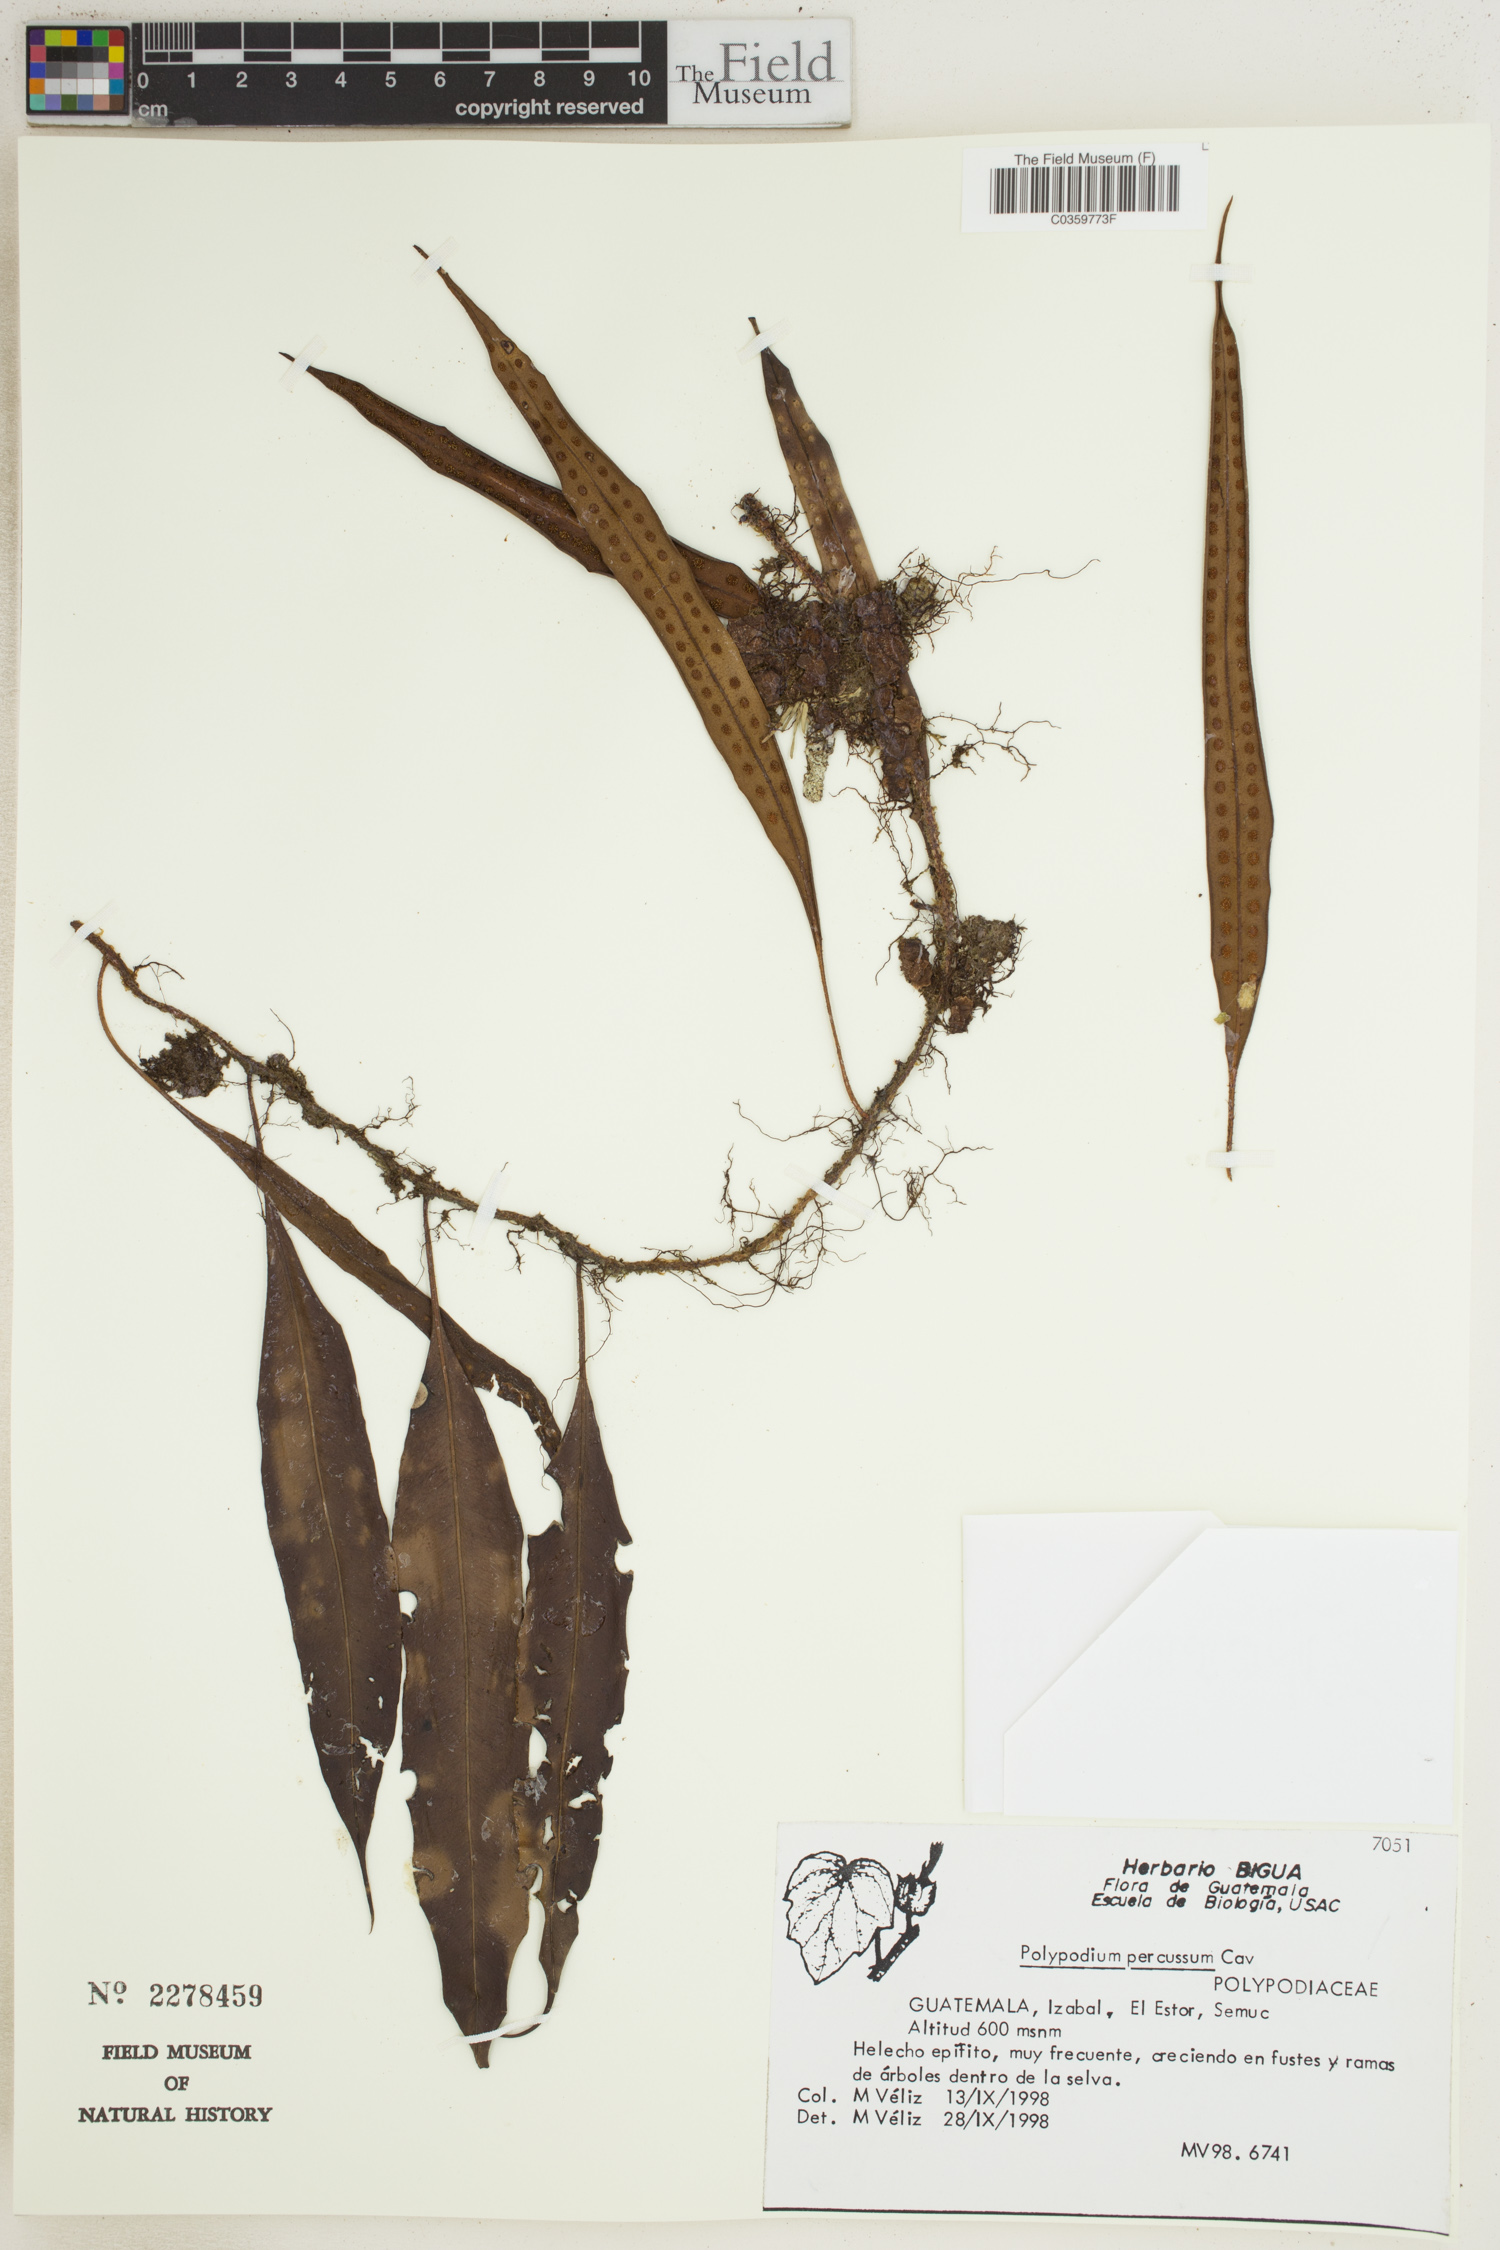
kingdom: Plantae
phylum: Tracheophyta
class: Polypodiopsida
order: Polypodiales
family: Polypodiaceae
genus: Microgramma
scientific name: Microgramma percussa
